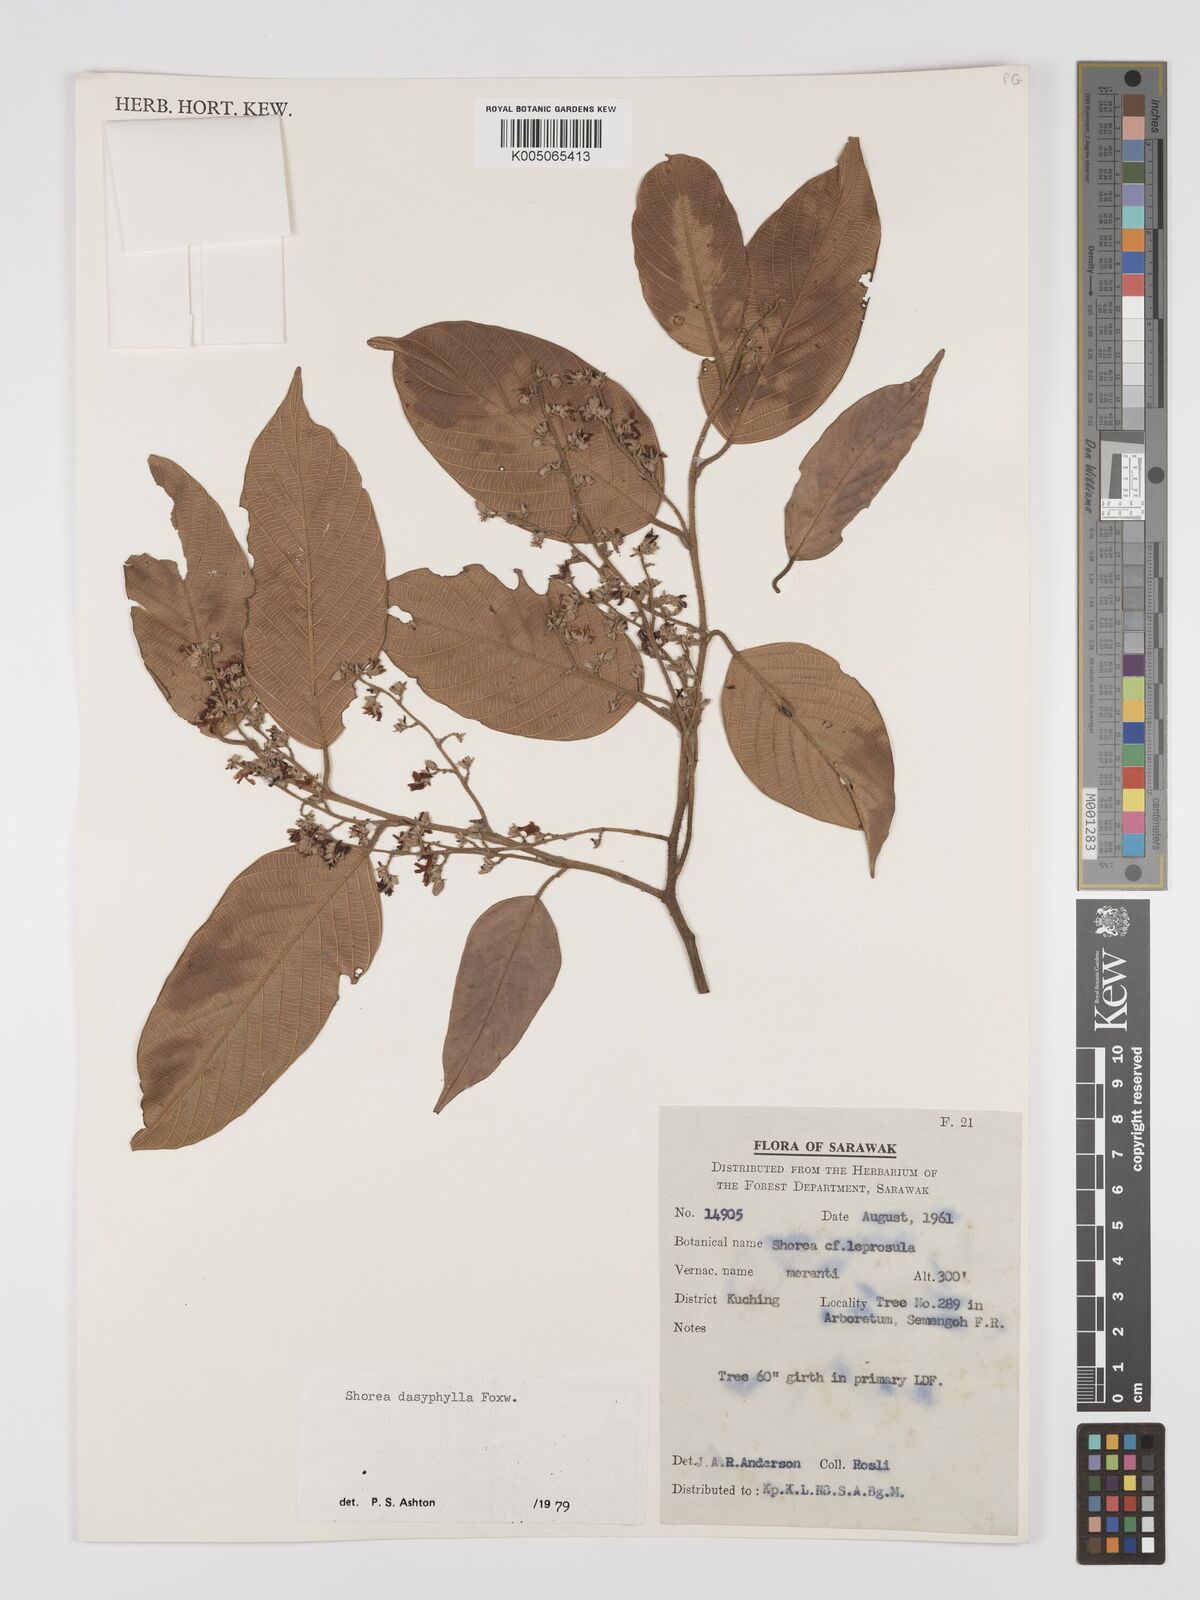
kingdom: Plantae
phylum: Tracheophyta
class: Magnoliopsida
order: Malvales
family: Dipterocarpaceae
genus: Shorea
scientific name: Shorea dasyphylla
